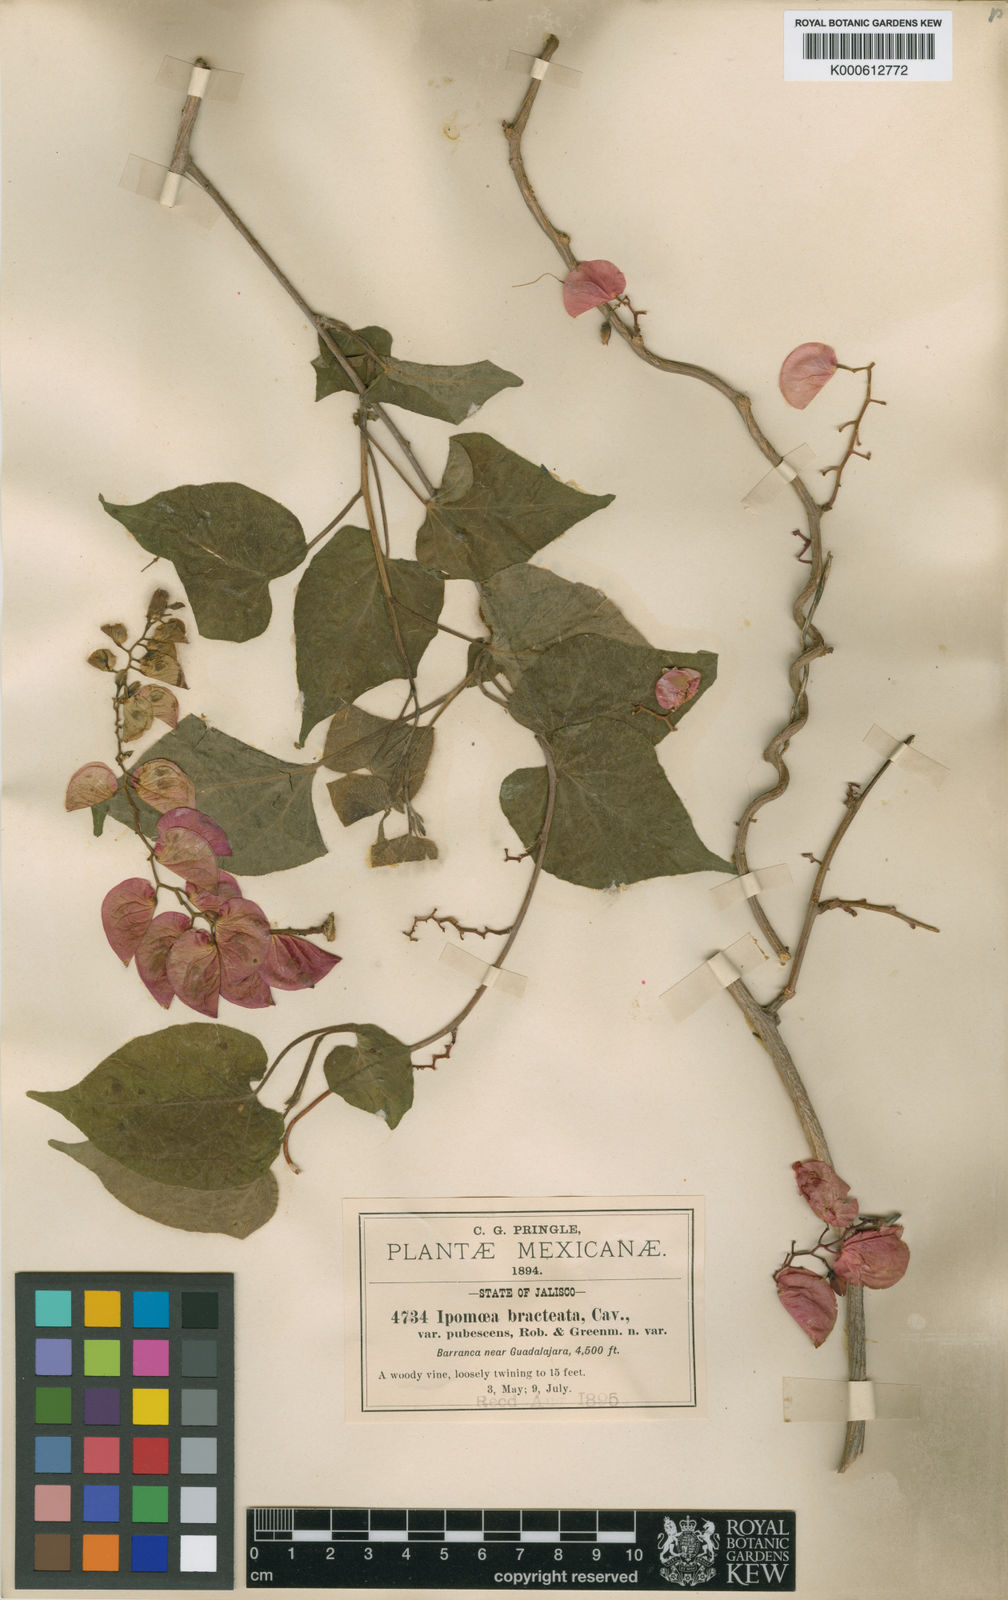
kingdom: Plantae
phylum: Tracheophyta
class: Magnoliopsida
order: Solanales
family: Convolvulaceae
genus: Ipomoea
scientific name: Ipomoea bracteata
